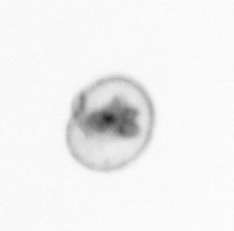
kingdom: Chromista
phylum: Myzozoa
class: Dinophyceae
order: Noctilucales
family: Noctilucaceae
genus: Noctiluca
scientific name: Noctiluca scintillans
